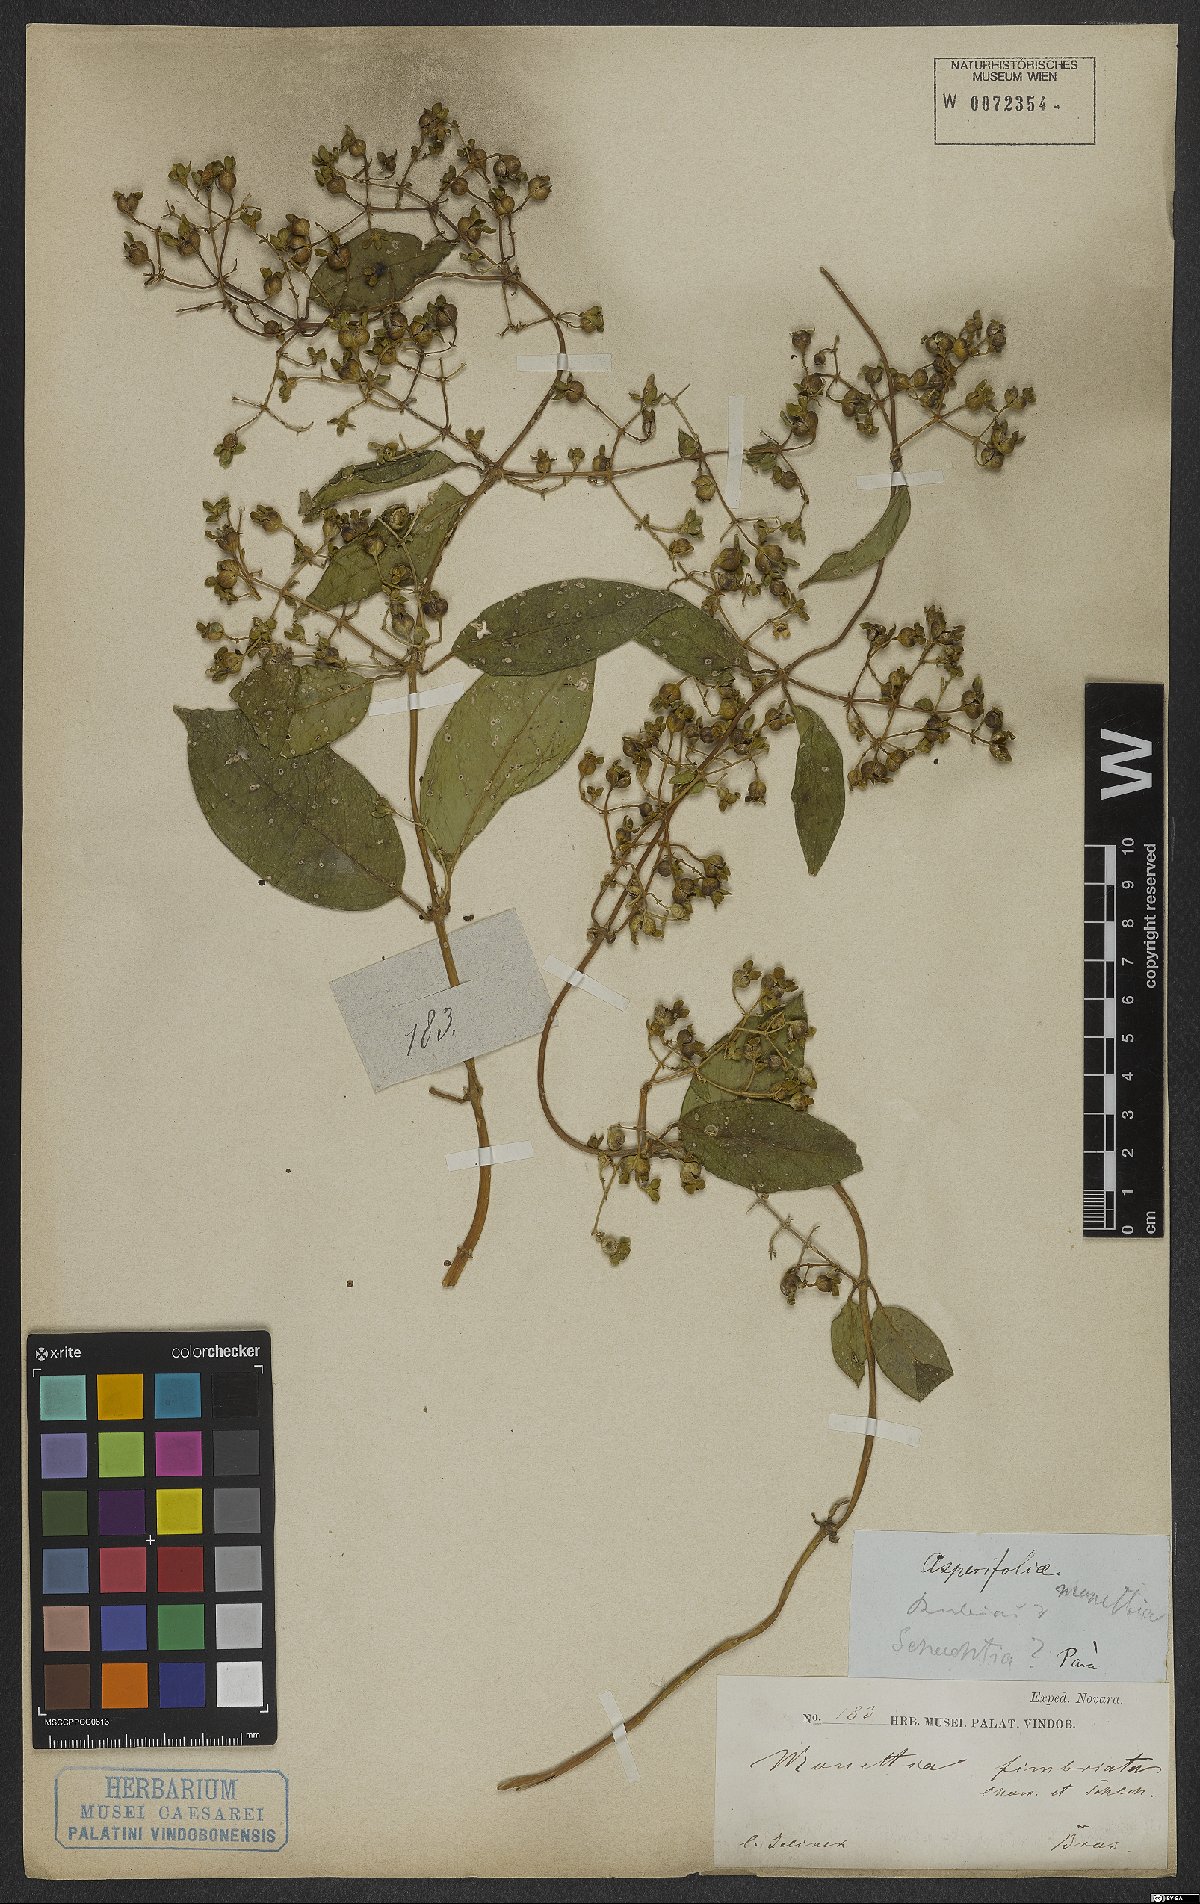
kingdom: Plantae
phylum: Tracheophyta
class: Magnoliopsida
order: Gentianales
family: Rubiaceae
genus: Manettia
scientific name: Manettia fimbriata
